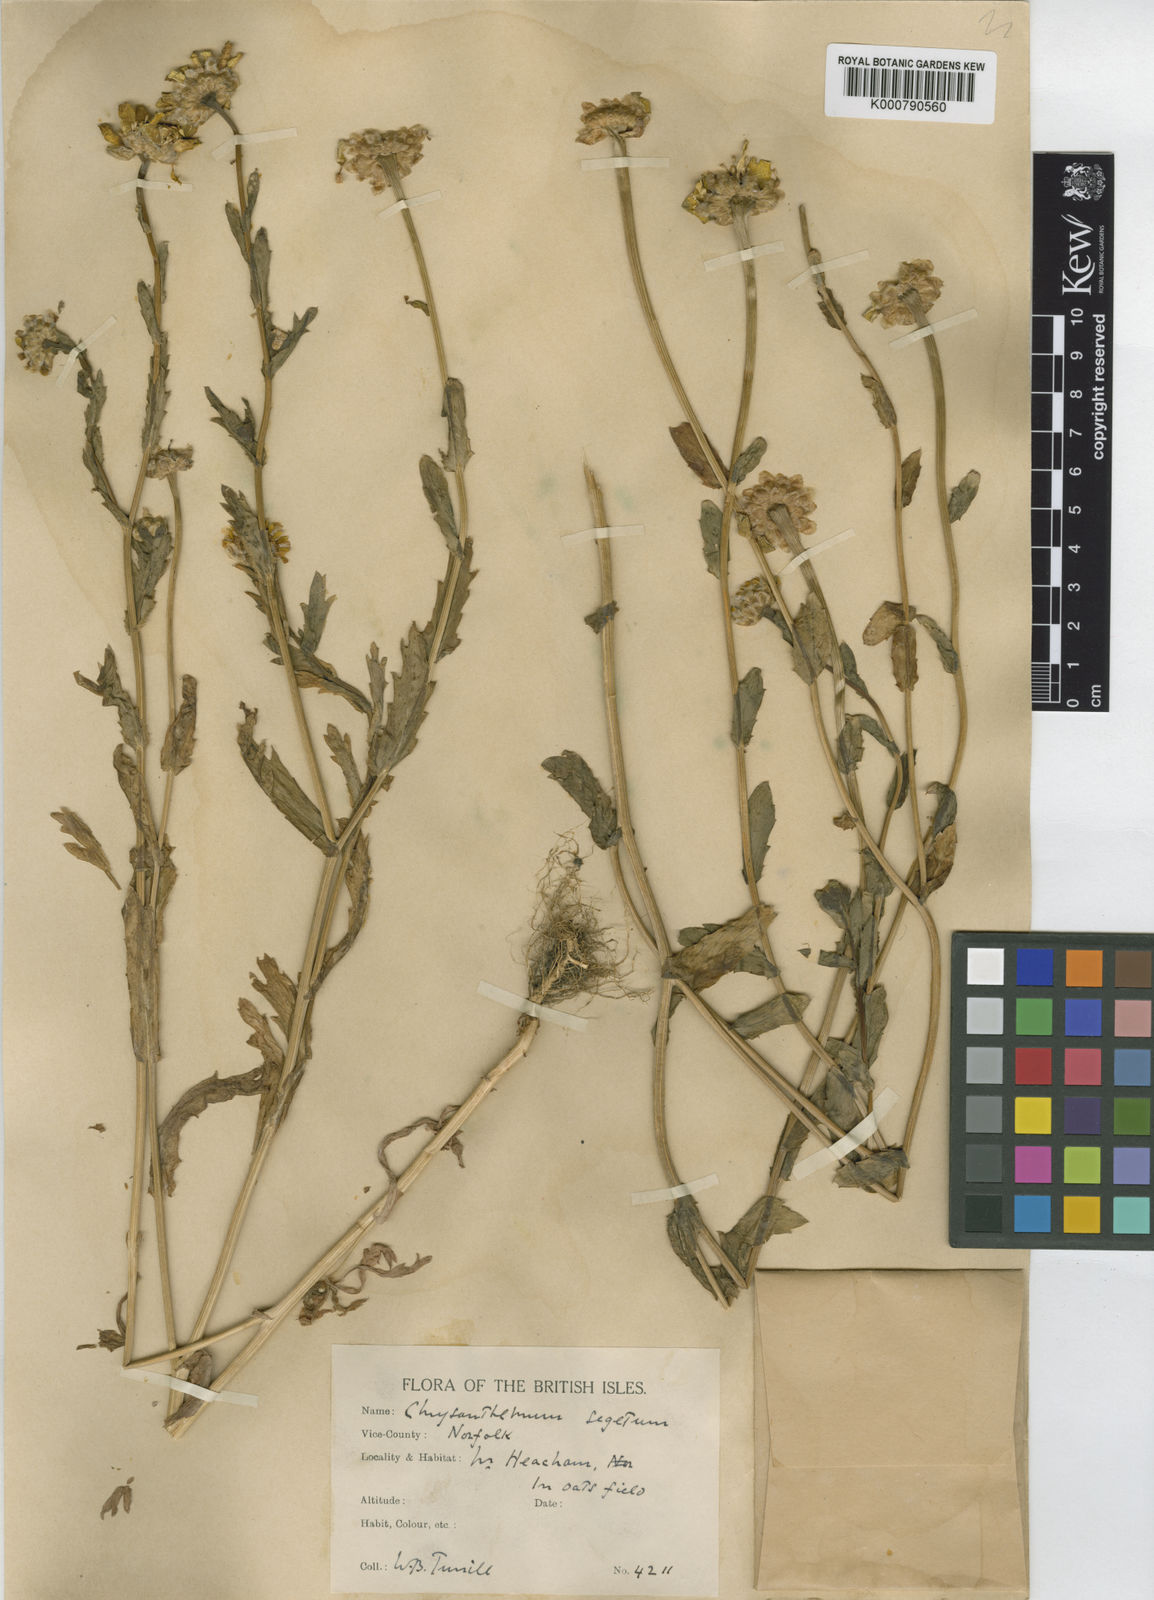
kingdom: Plantae
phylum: Tracheophyta
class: Magnoliopsida
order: Asterales
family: Asteraceae
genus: Glebionis
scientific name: Glebionis
